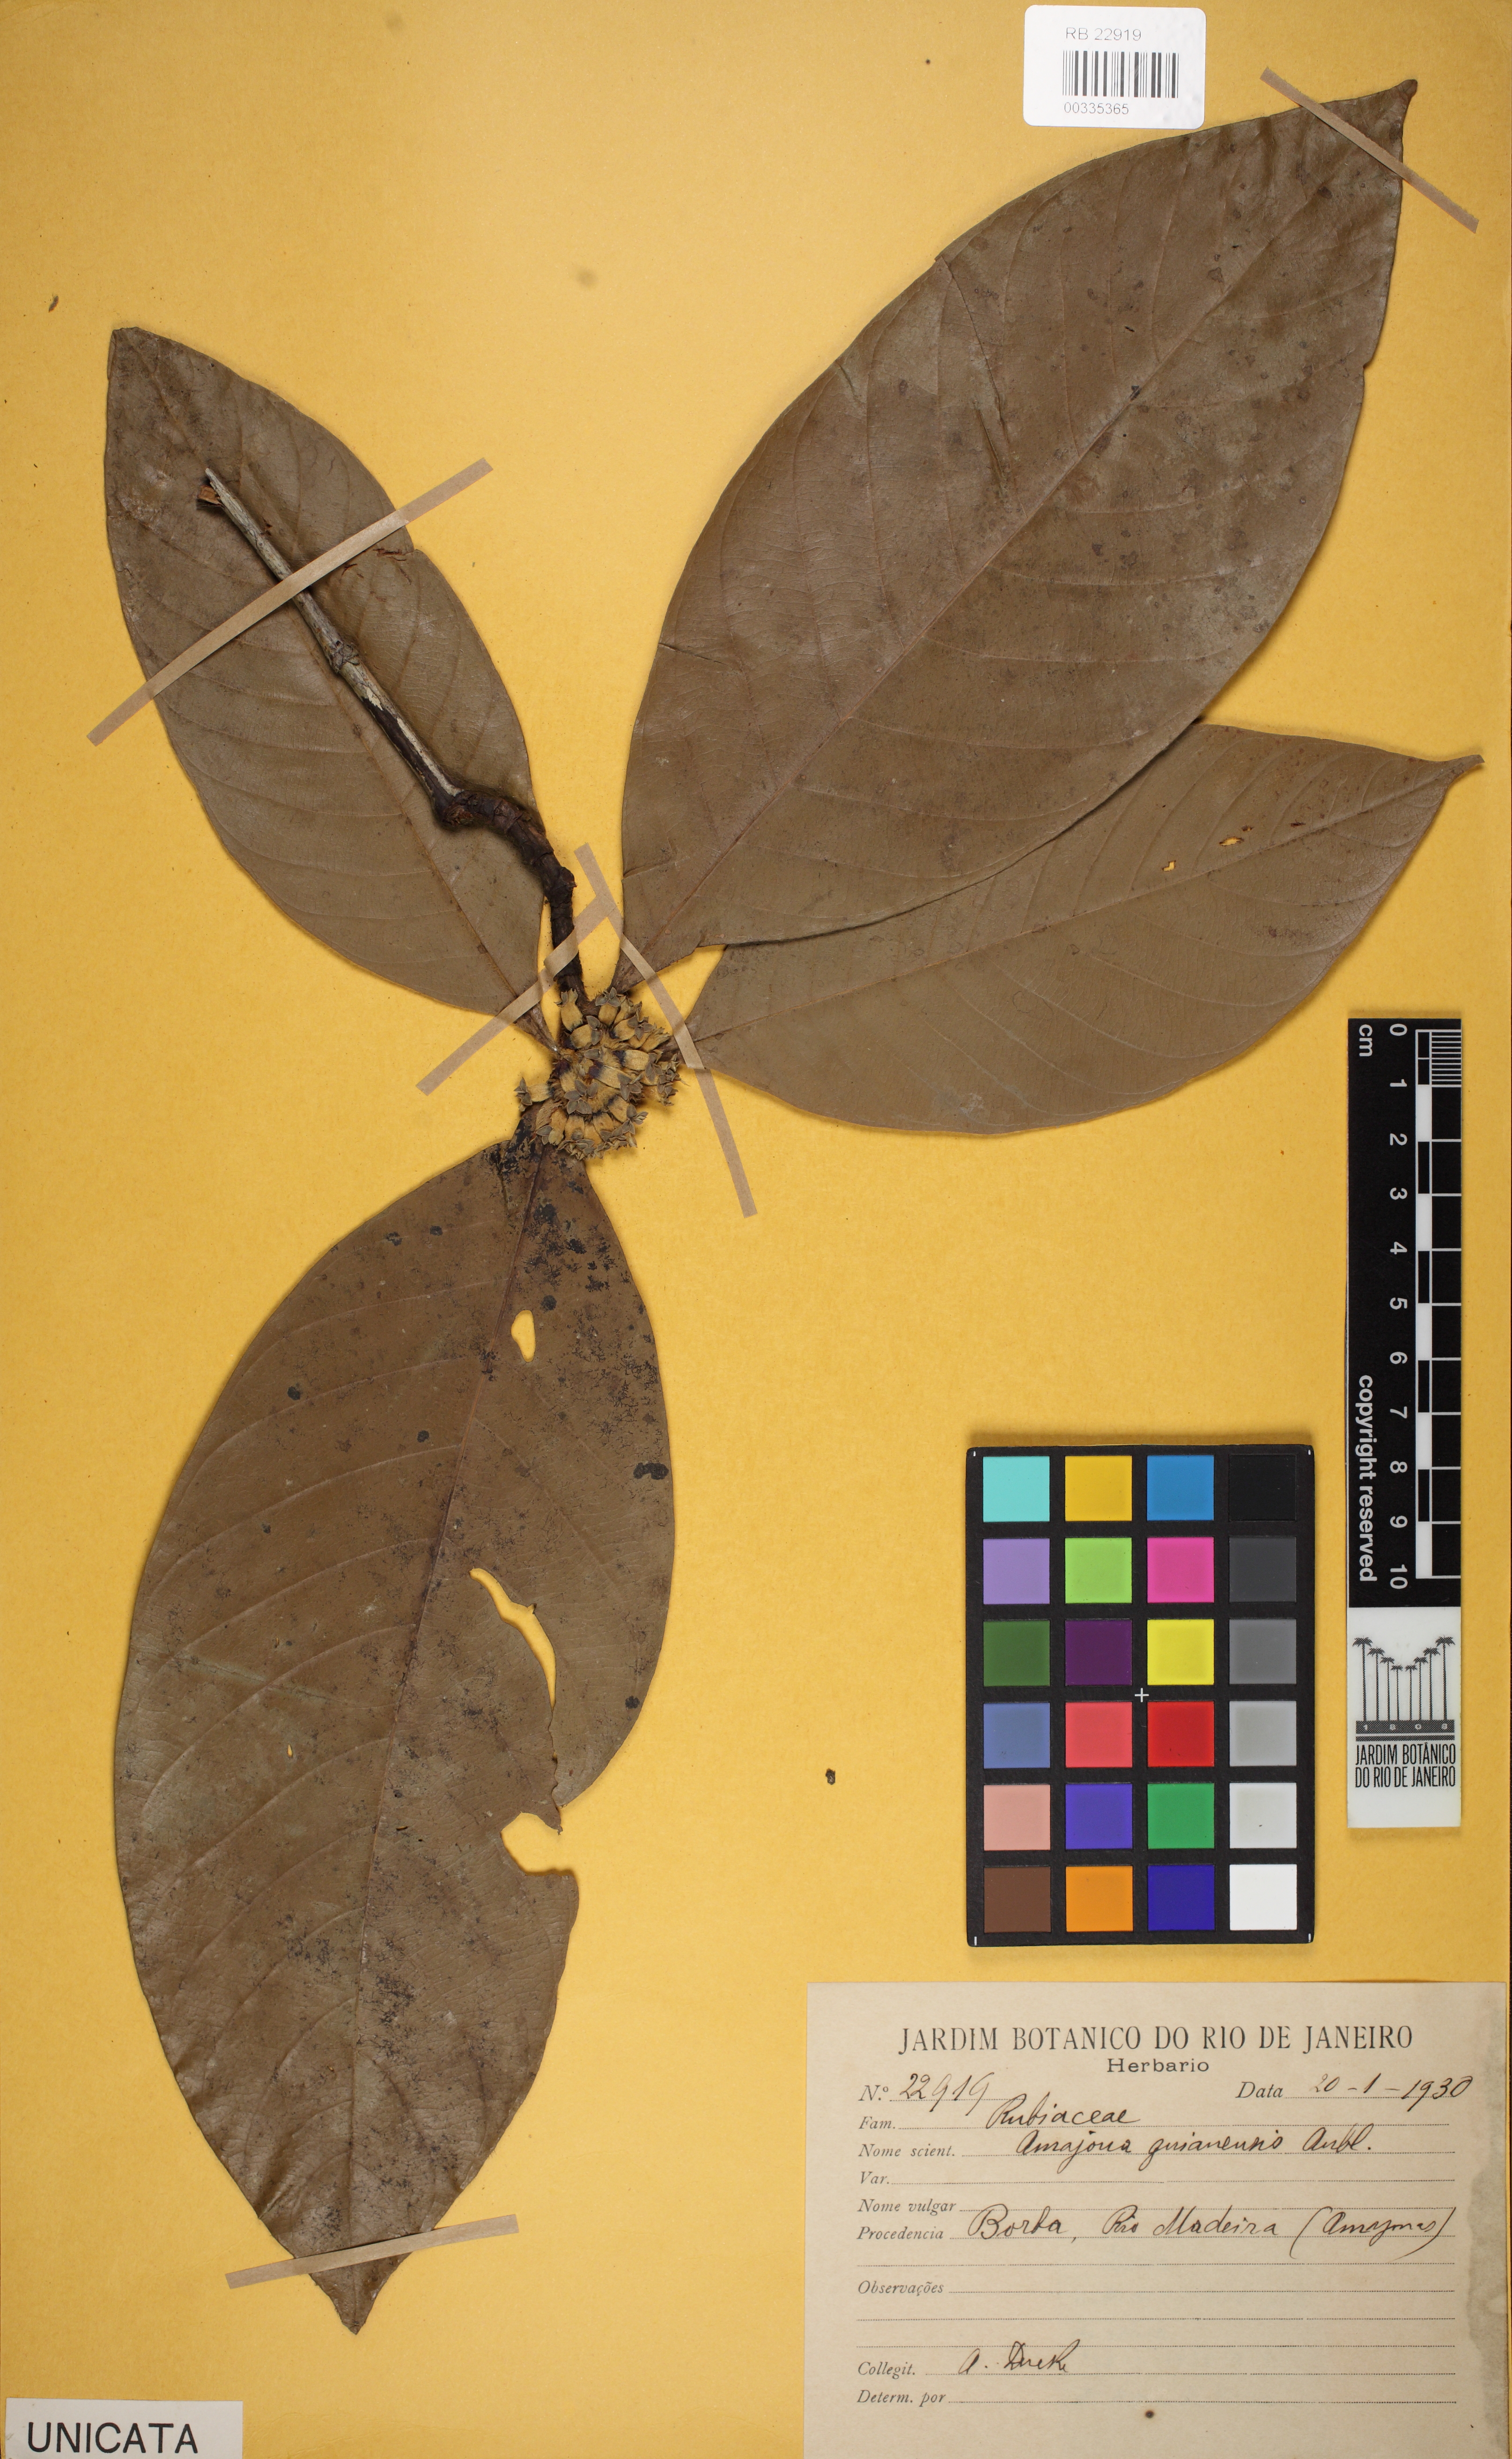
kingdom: Plantae
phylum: Tracheophyta
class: Magnoliopsida
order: Gentianales
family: Rubiaceae
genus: Amaioua
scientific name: Amaioua guianensis
